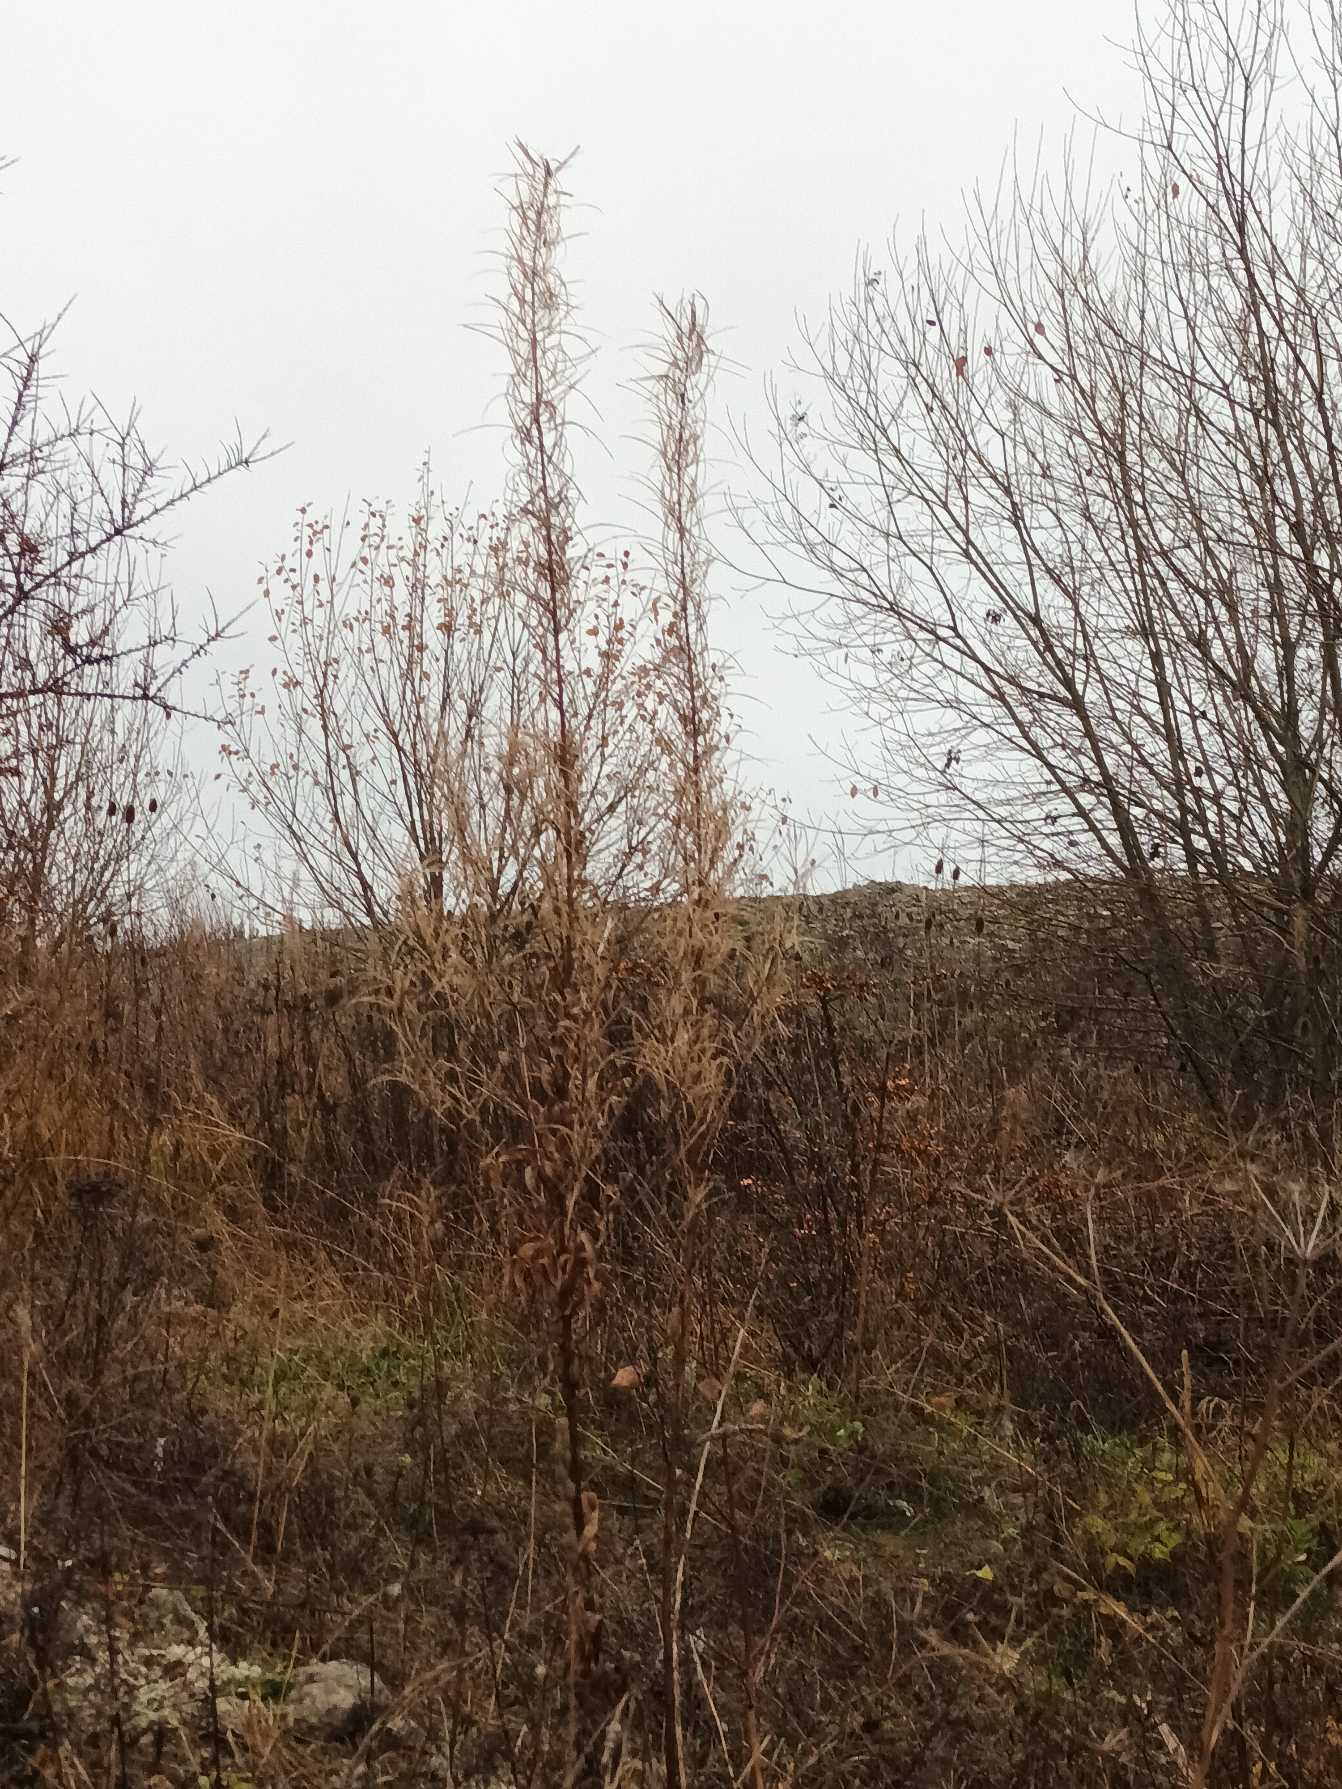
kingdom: Plantae
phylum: Tracheophyta
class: Magnoliopsida
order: Myrtales
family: Onagraceae
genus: Chamaenerion
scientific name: Chamaenerion angustifolium
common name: Gederams
